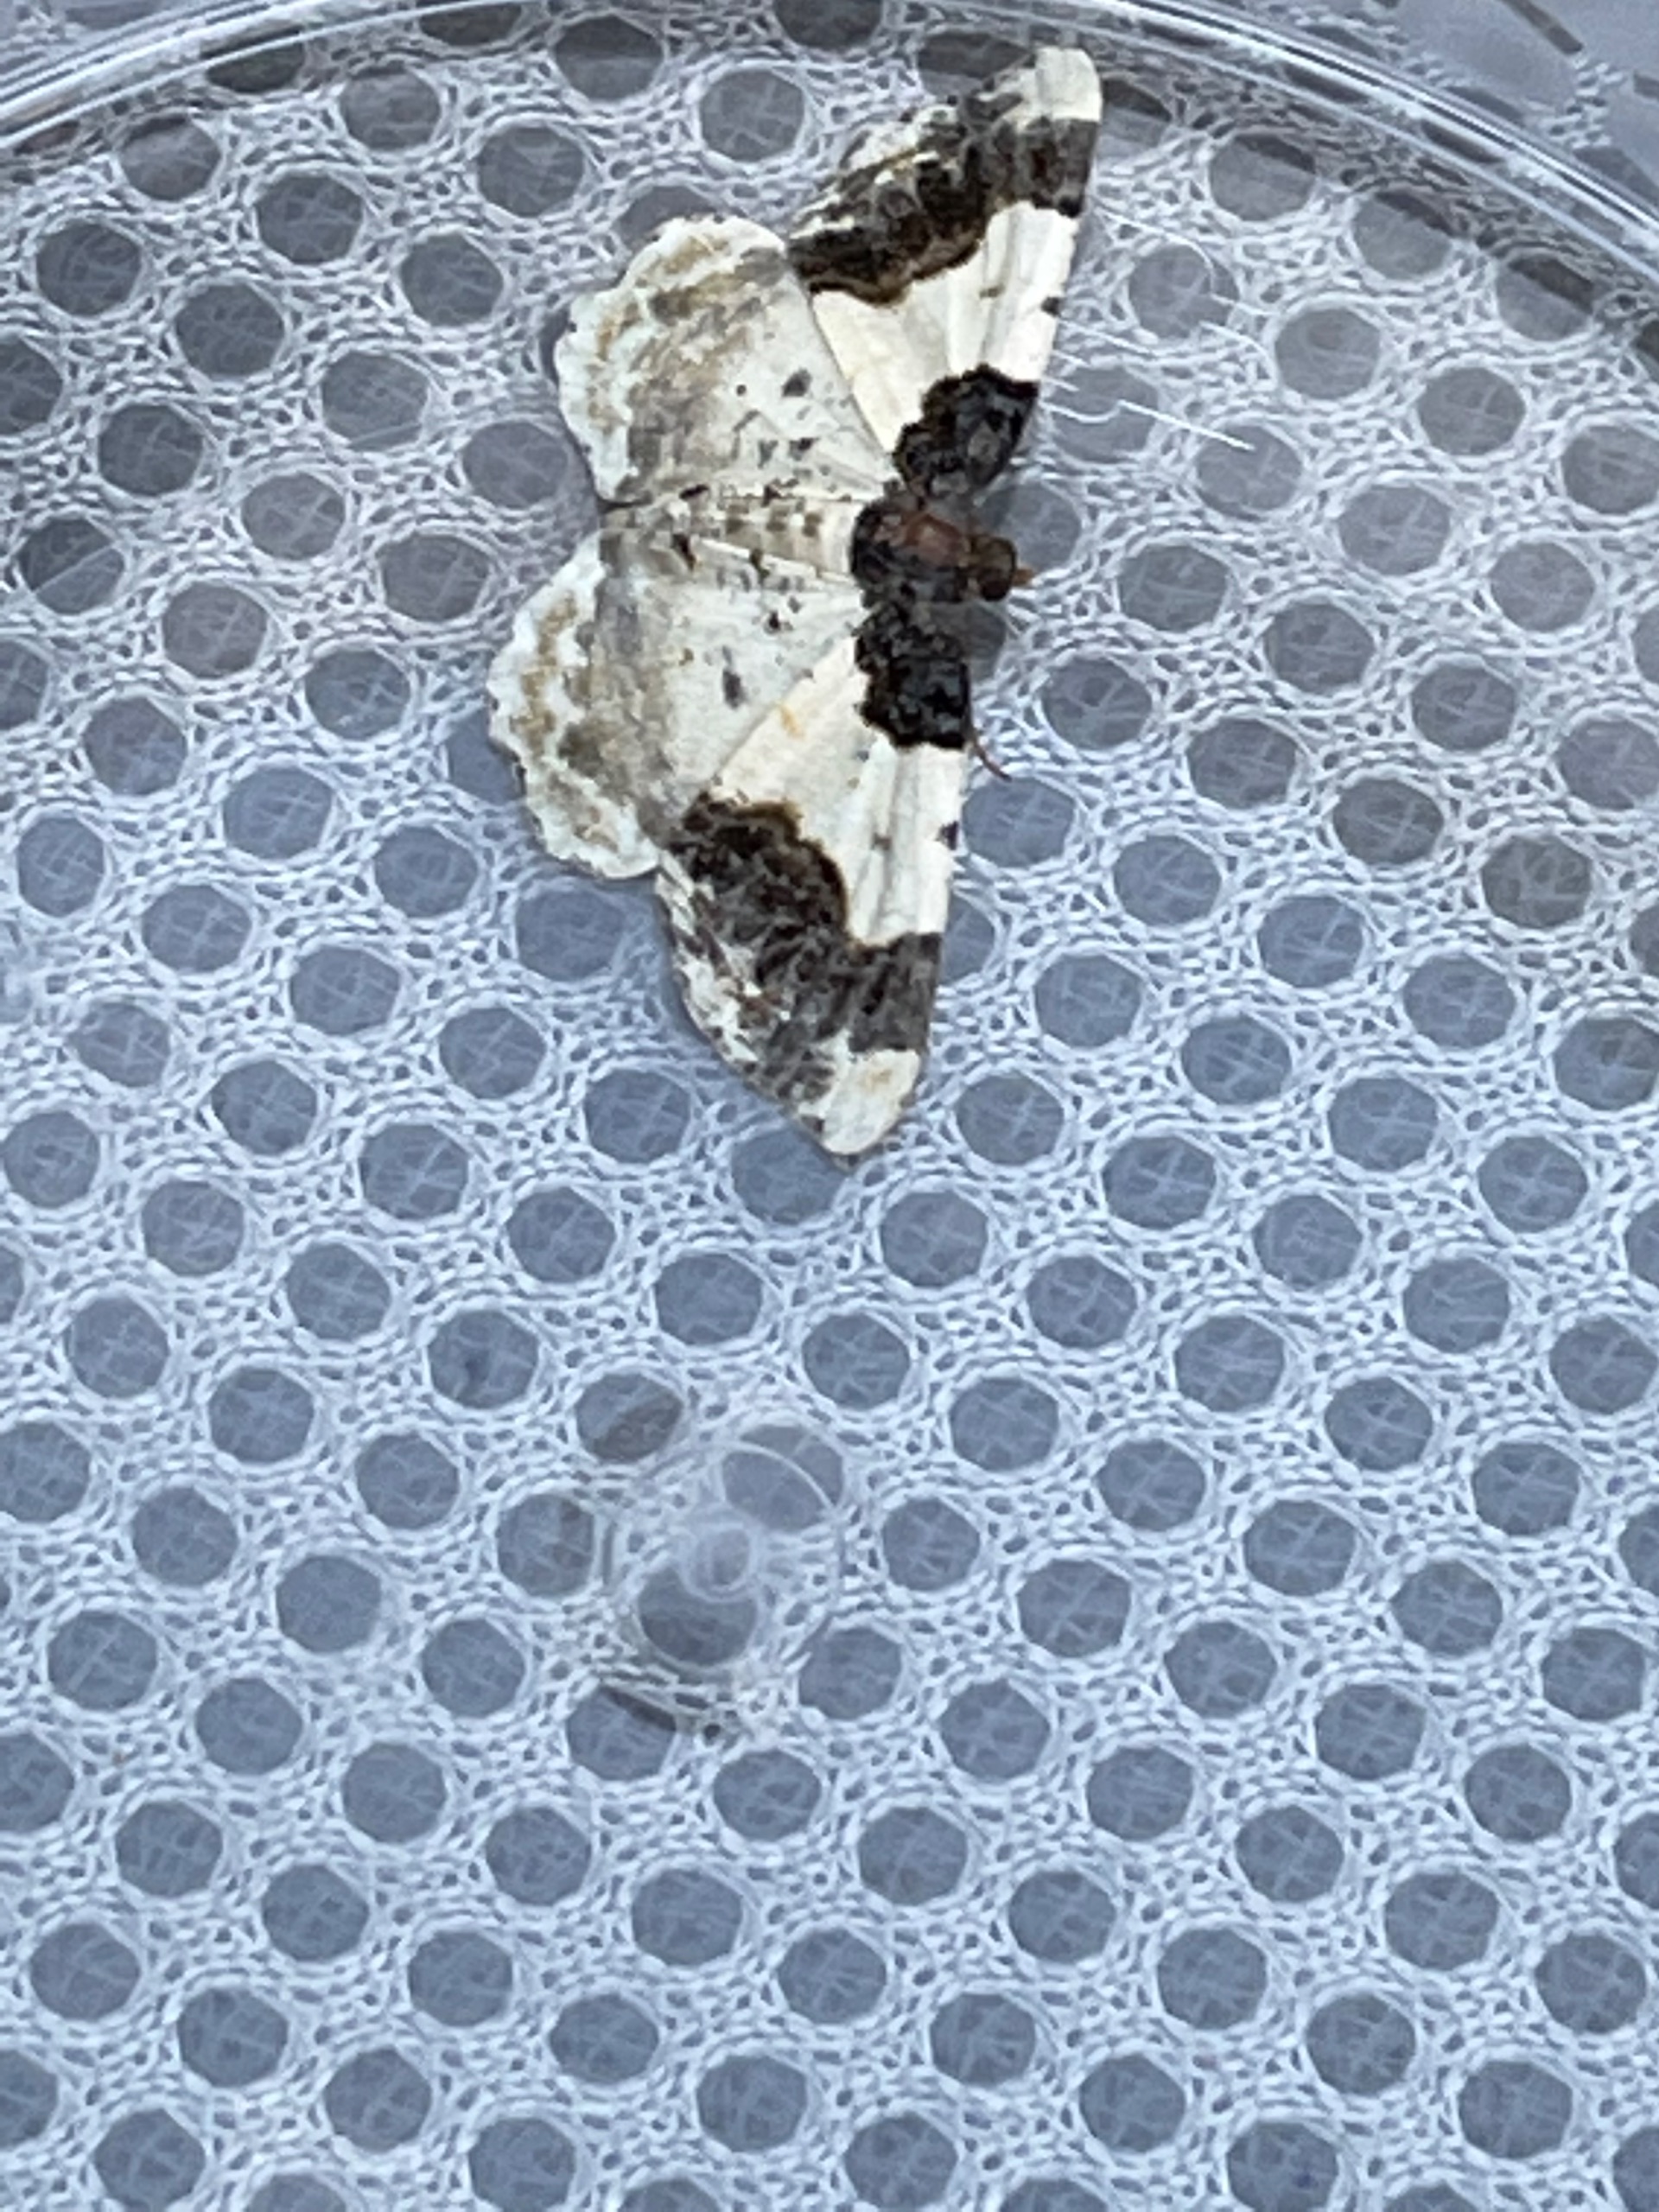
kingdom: Animalia
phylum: Arthropoda
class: Insecta
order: Lepidoptera
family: Geometridae
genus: Ligdia
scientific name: Ligdia adustata
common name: Benvedmåler
